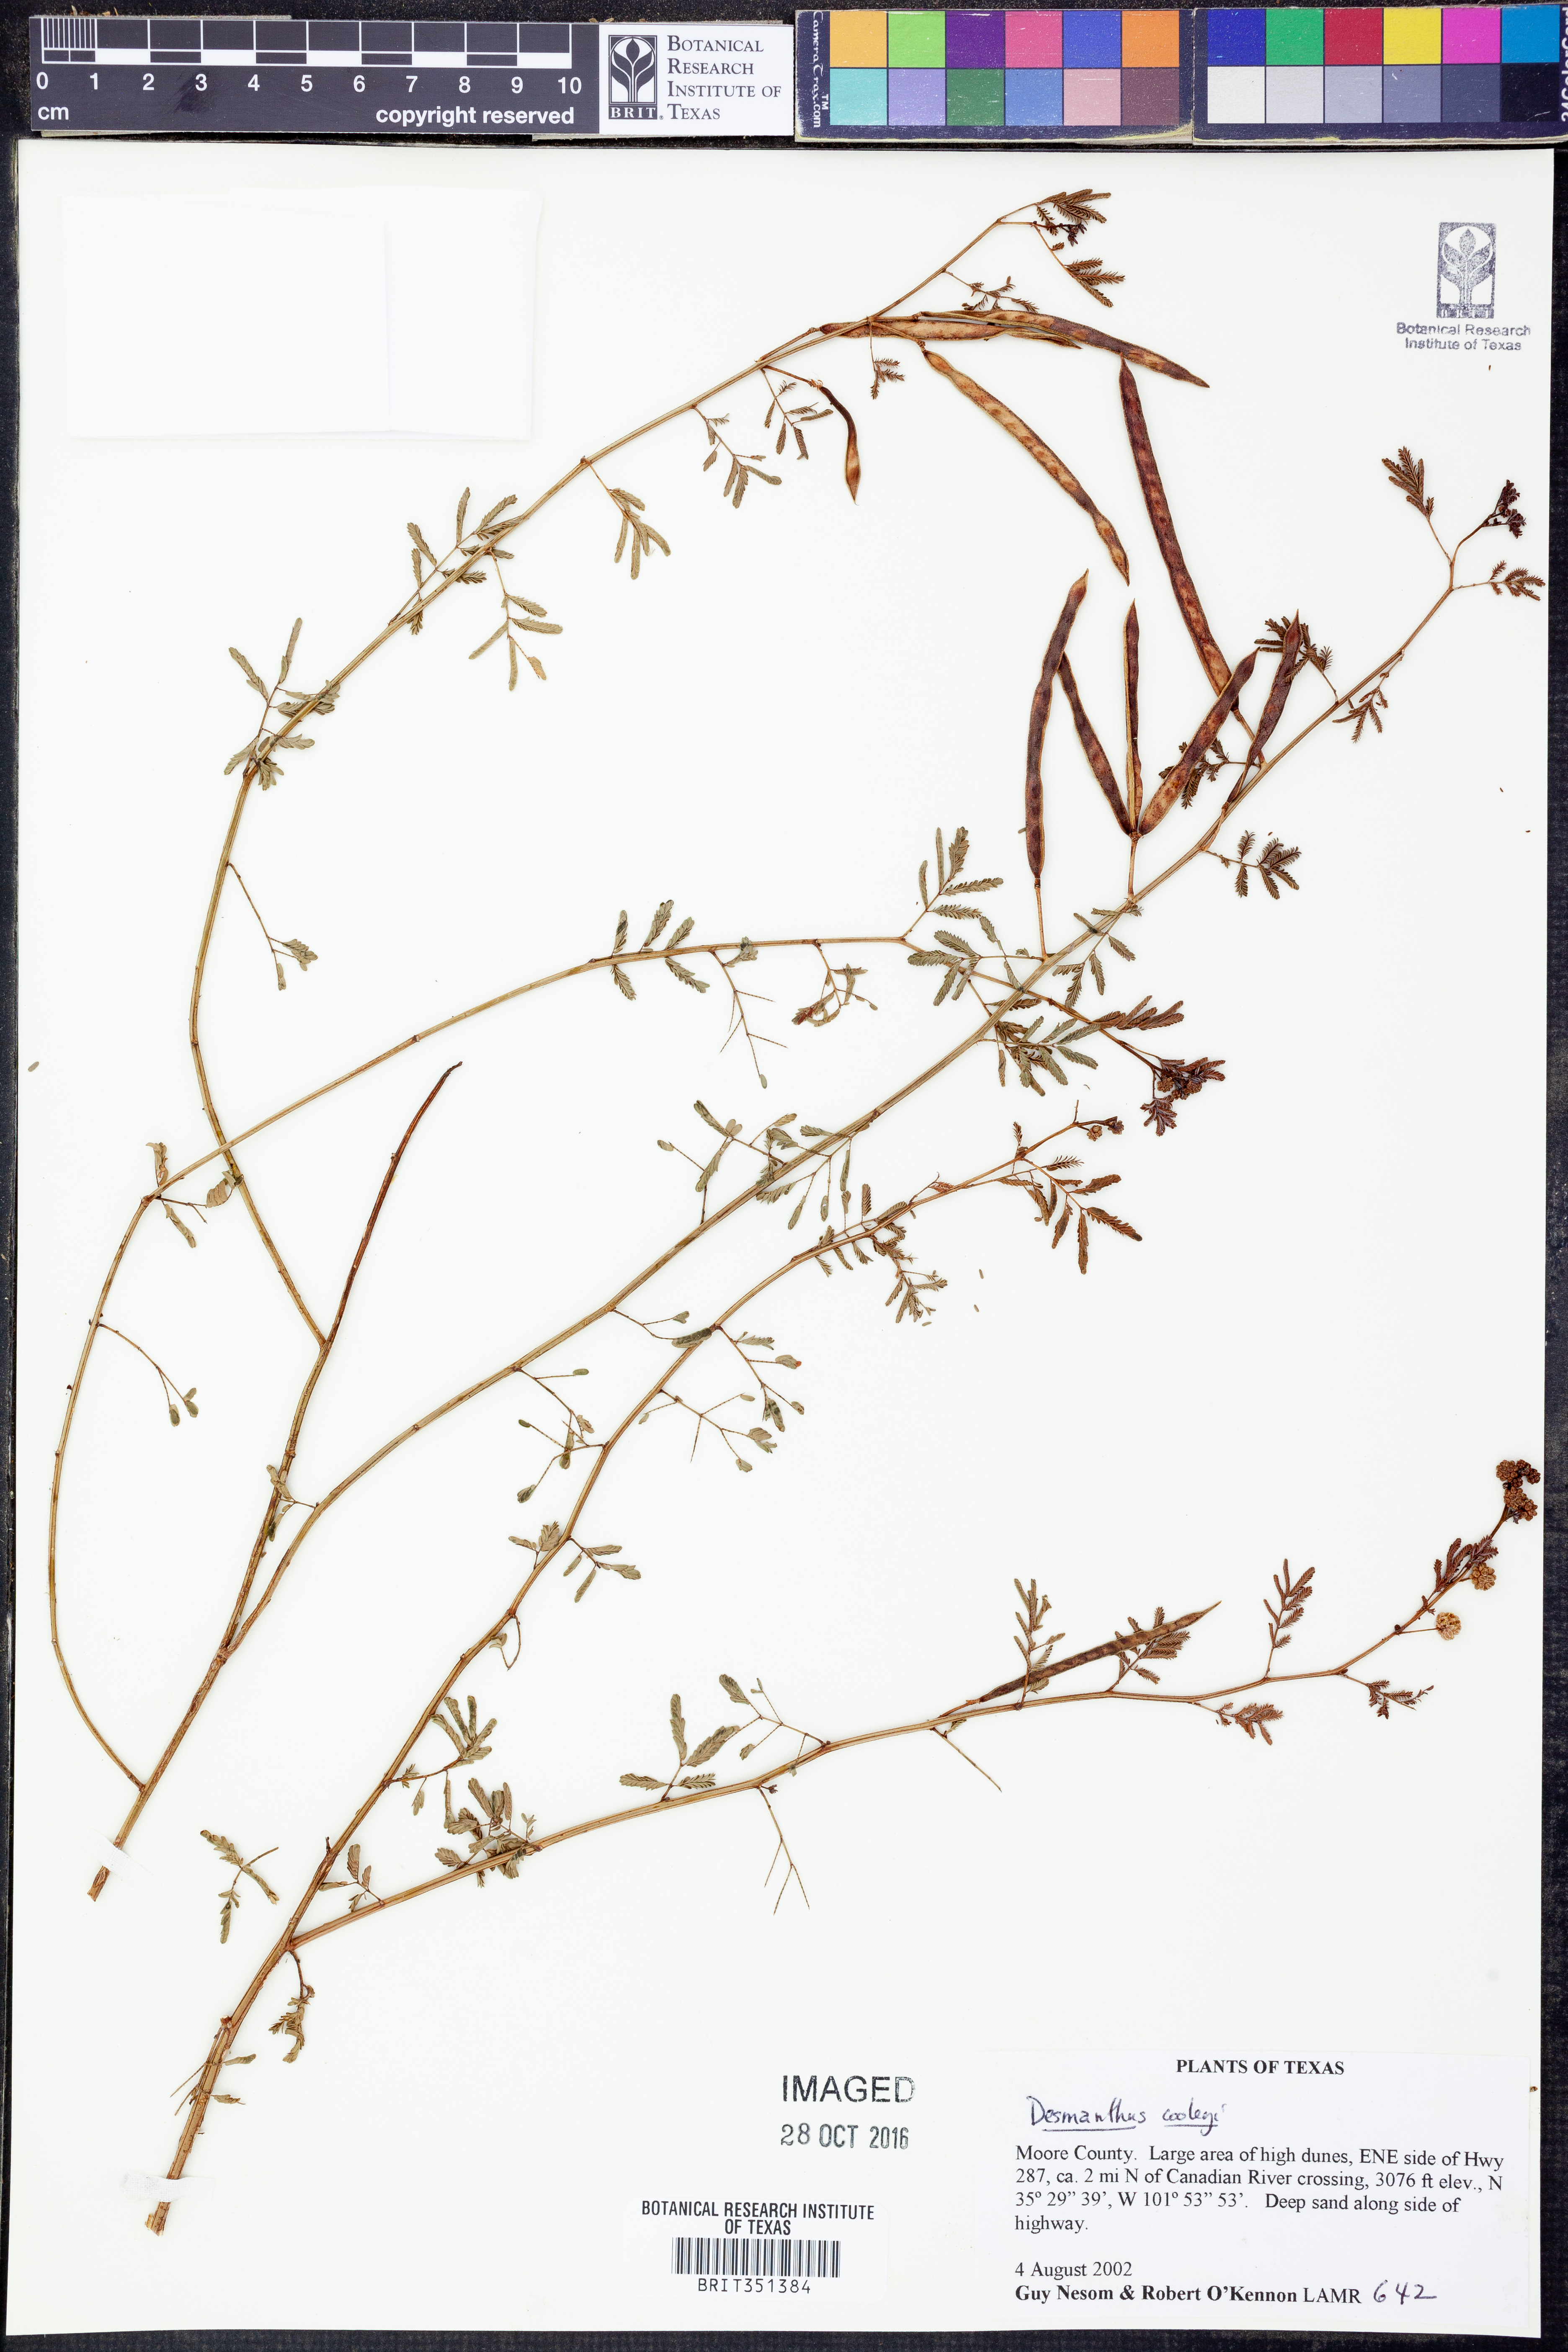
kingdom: Plantae
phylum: Tracheophyta
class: Magnoliopsida
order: Fabales
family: Fabaceae
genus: Desmanthus
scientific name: Desmanthus cooleyi
